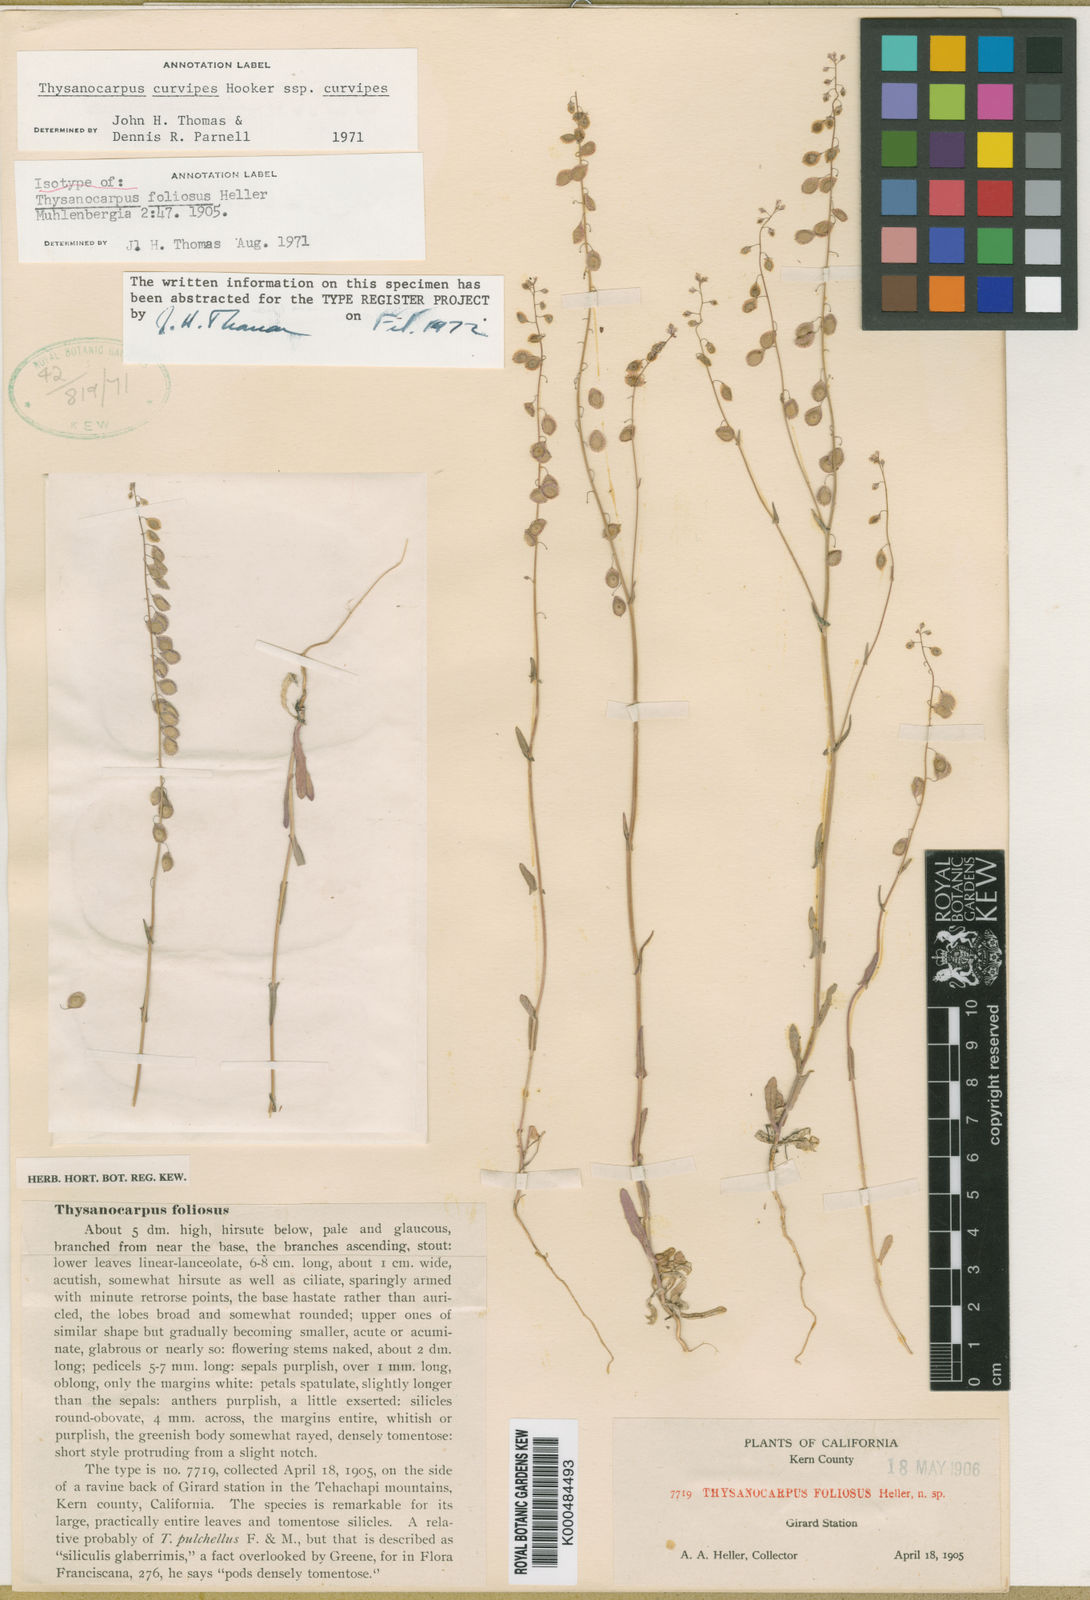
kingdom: Plantae
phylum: Tracheophyta
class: Magnoliopsida
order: Brassicales
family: Brassicaceae
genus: Thysanocarpus
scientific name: Thysanocarpus curvipes
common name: Sand fringepod
